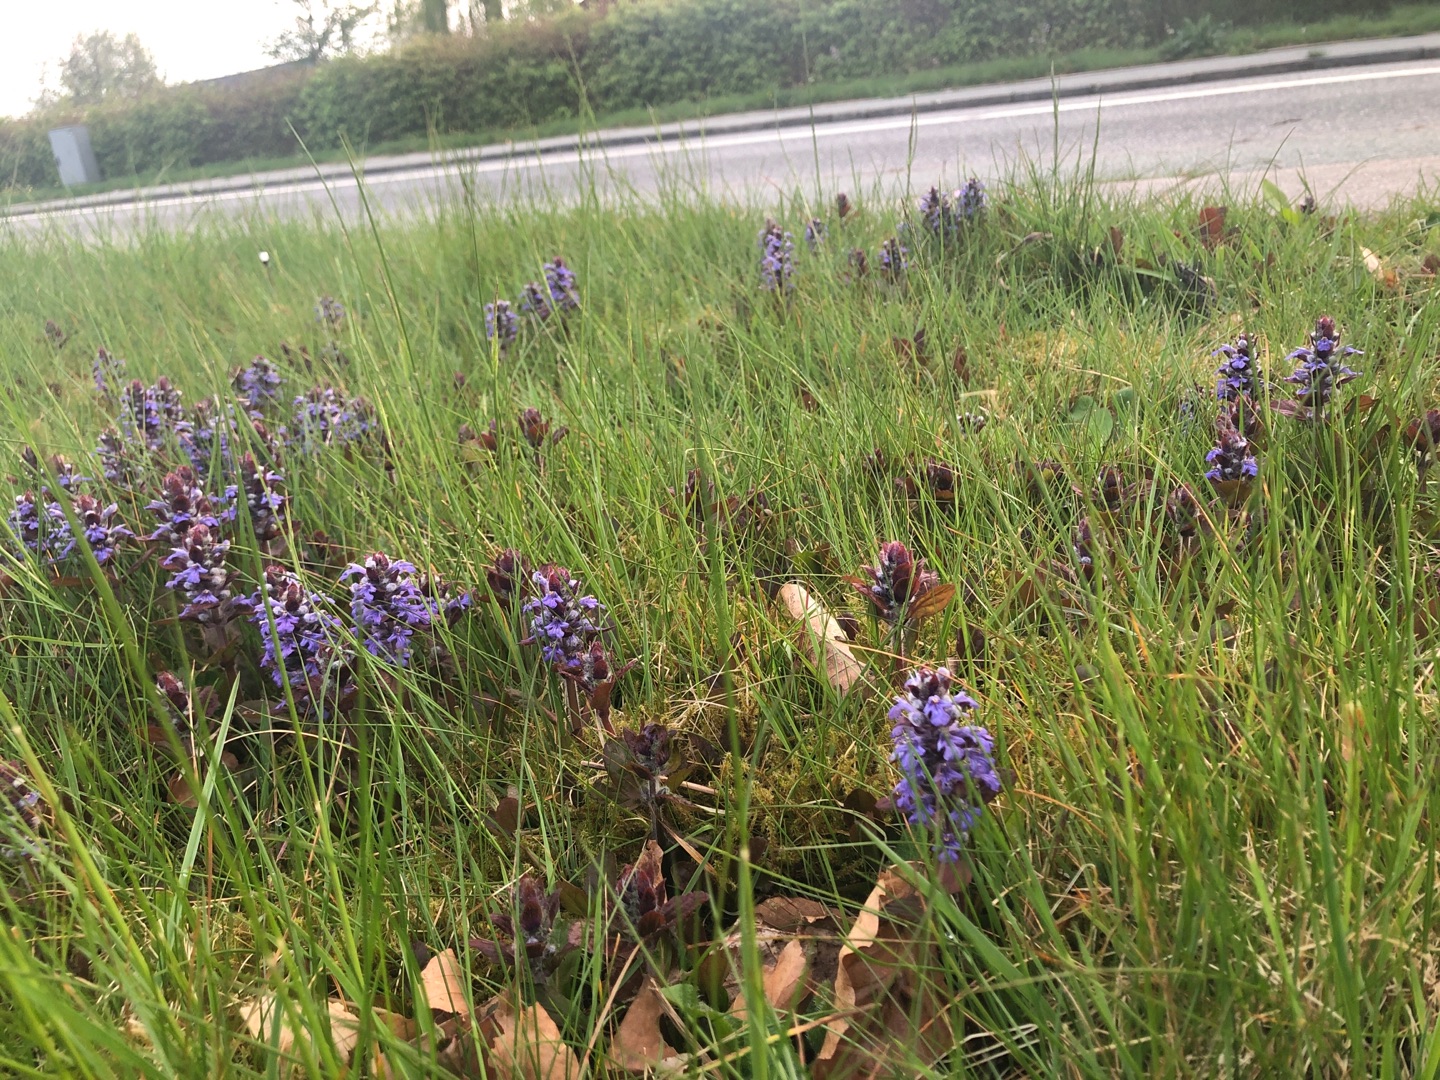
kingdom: Plantae
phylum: Tracheophyta
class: Magnoliopsida
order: Lamiales
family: Lamiaceae
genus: Ajuga
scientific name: Ajuga reptans
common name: Krybende læbeløs
